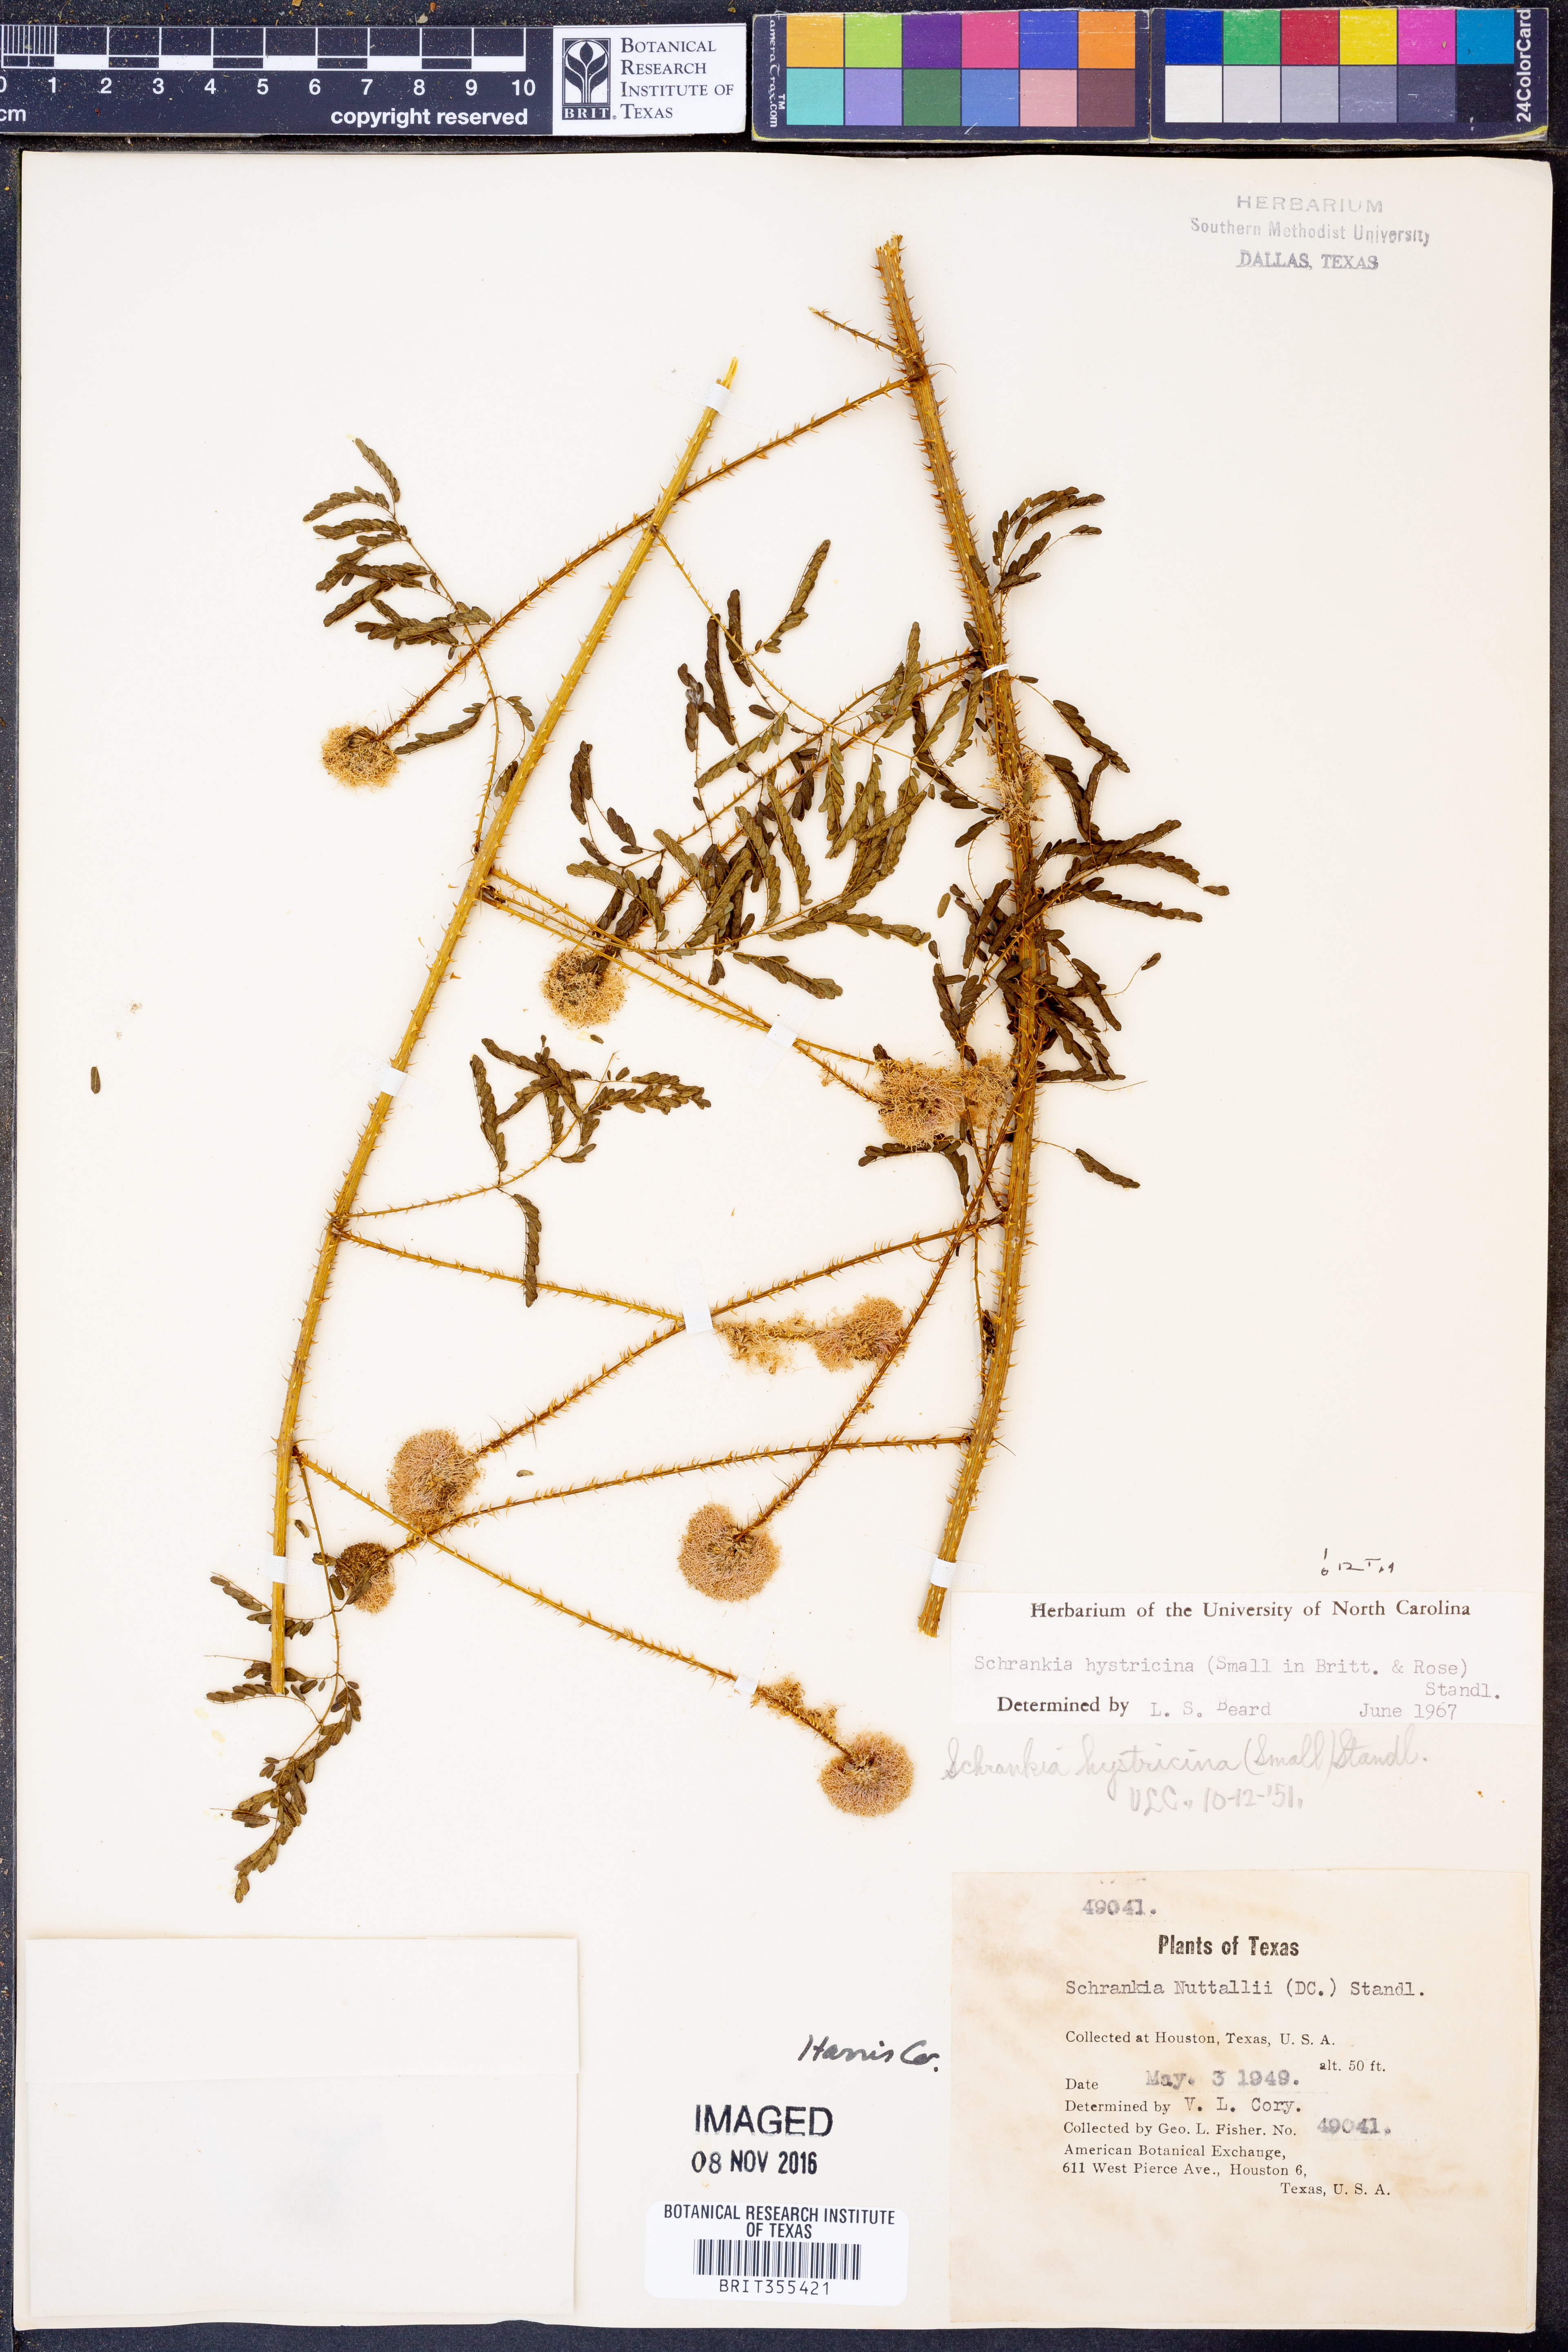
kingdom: Plantae
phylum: Tracheophyta
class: Magnoliopsida
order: Fabales
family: Fabaceae
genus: Mimosa
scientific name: Mimosa hystricina
